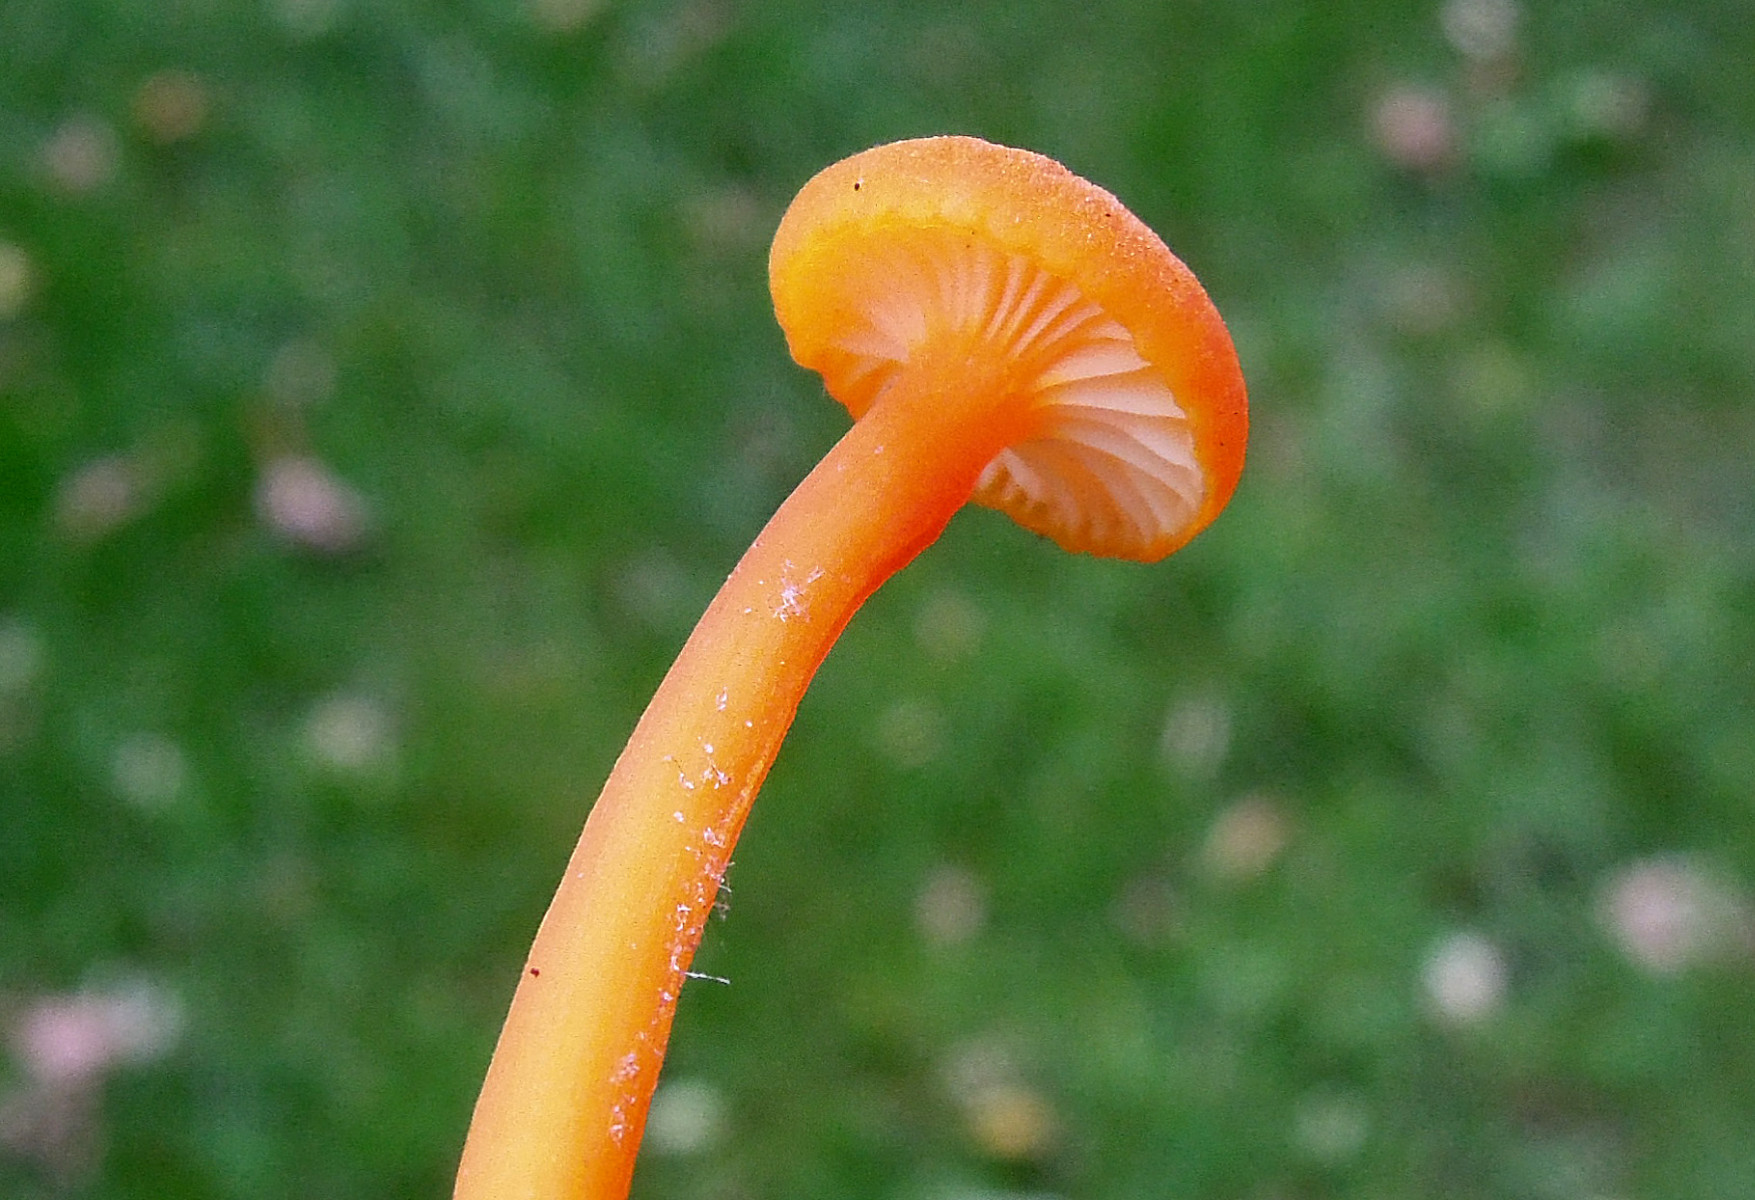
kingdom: Fungi
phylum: Basidiomycota
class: Agaricomycetes
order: Agaricales
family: Hygrophoraceae
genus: Hygrocybe
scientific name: Hygrocybe cantharellus
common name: kantarel-vokshat
